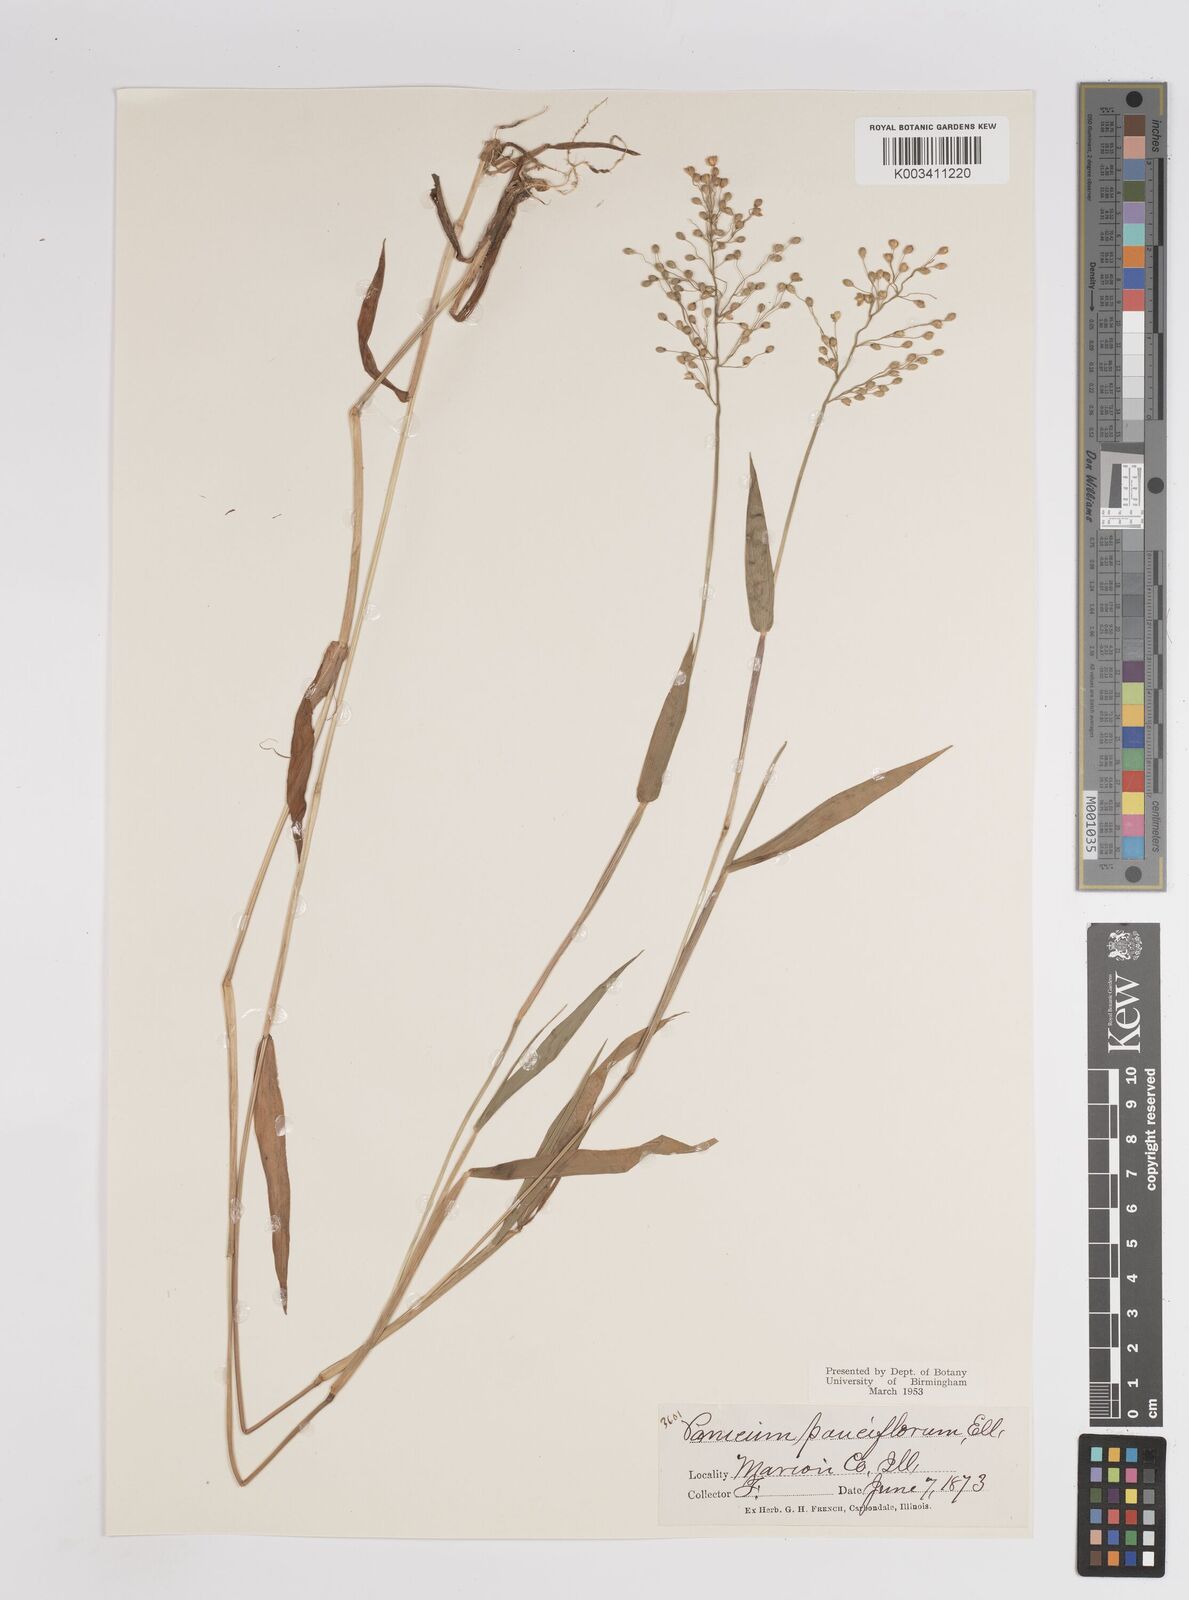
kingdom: Plantae
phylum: Tracheophyta
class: Liliopsida
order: Poales
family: Poaceae
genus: Dichanthelium
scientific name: Dichanthelium oligosanthes
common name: Few-anther obscuregrass
